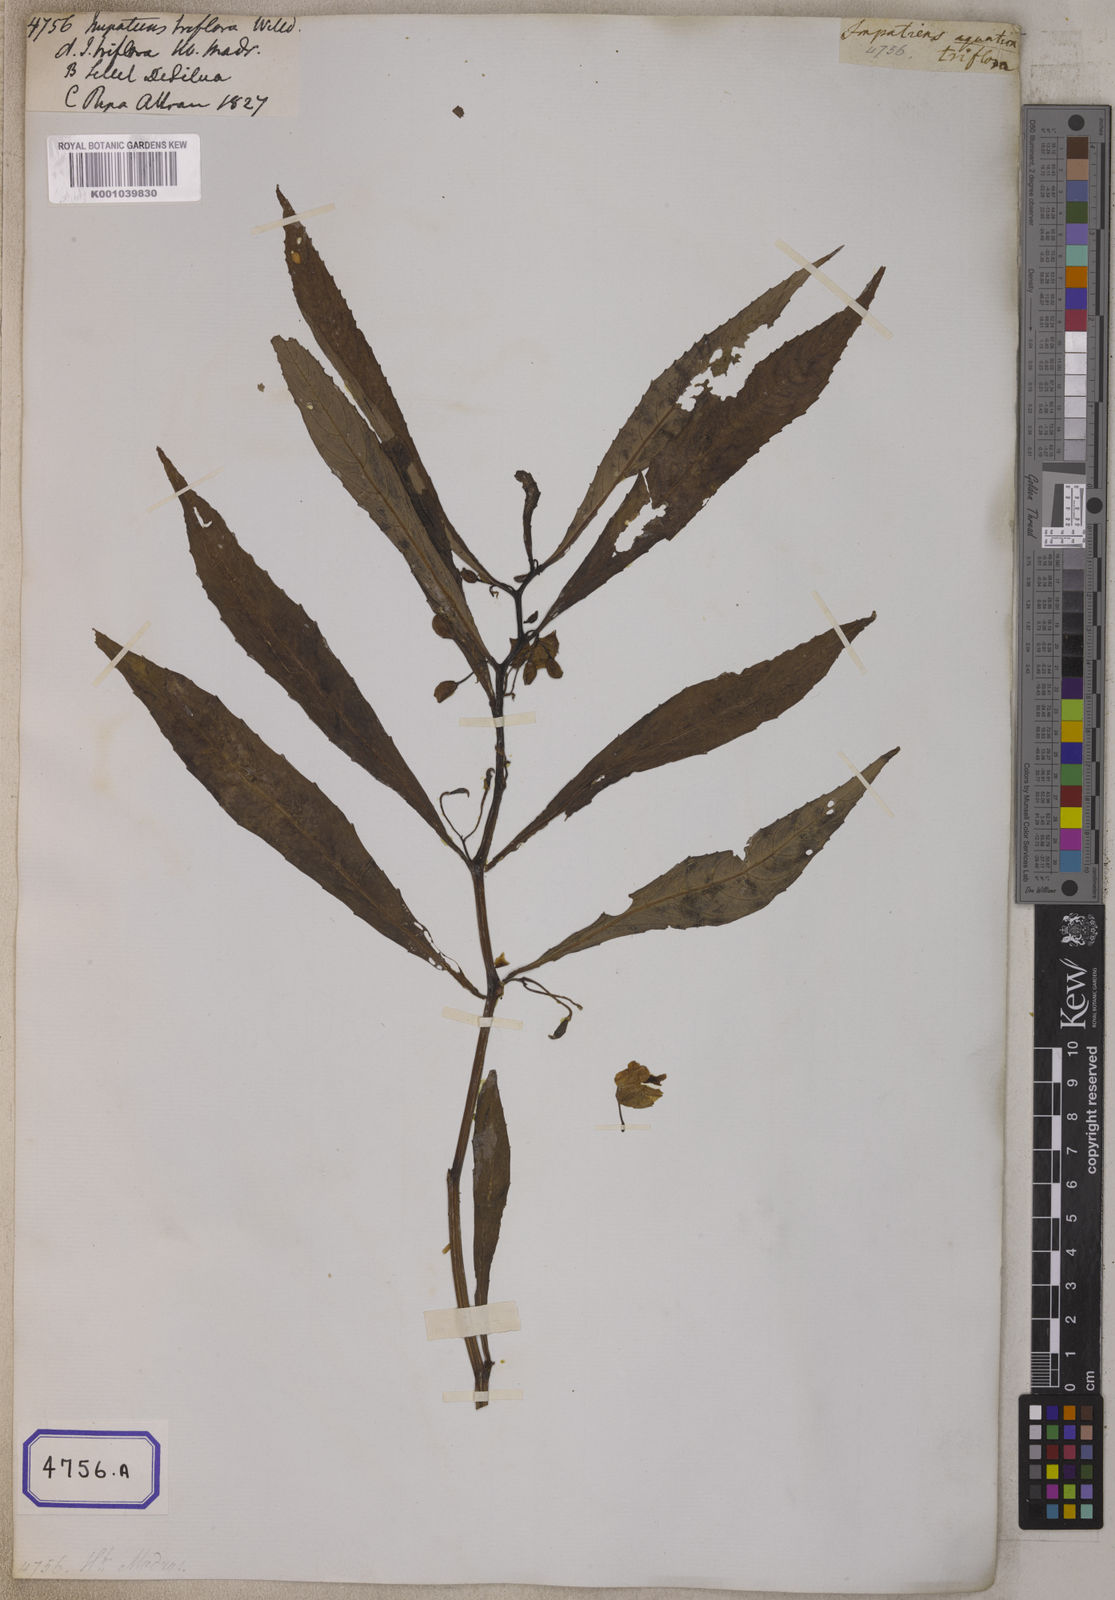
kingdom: Plantae
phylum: Tracheophyta
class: Magnoliopsida
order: Ericales
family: Balsaminaceae
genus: Hydrocera
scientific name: Hydrocera triflora
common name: Marsh henna
